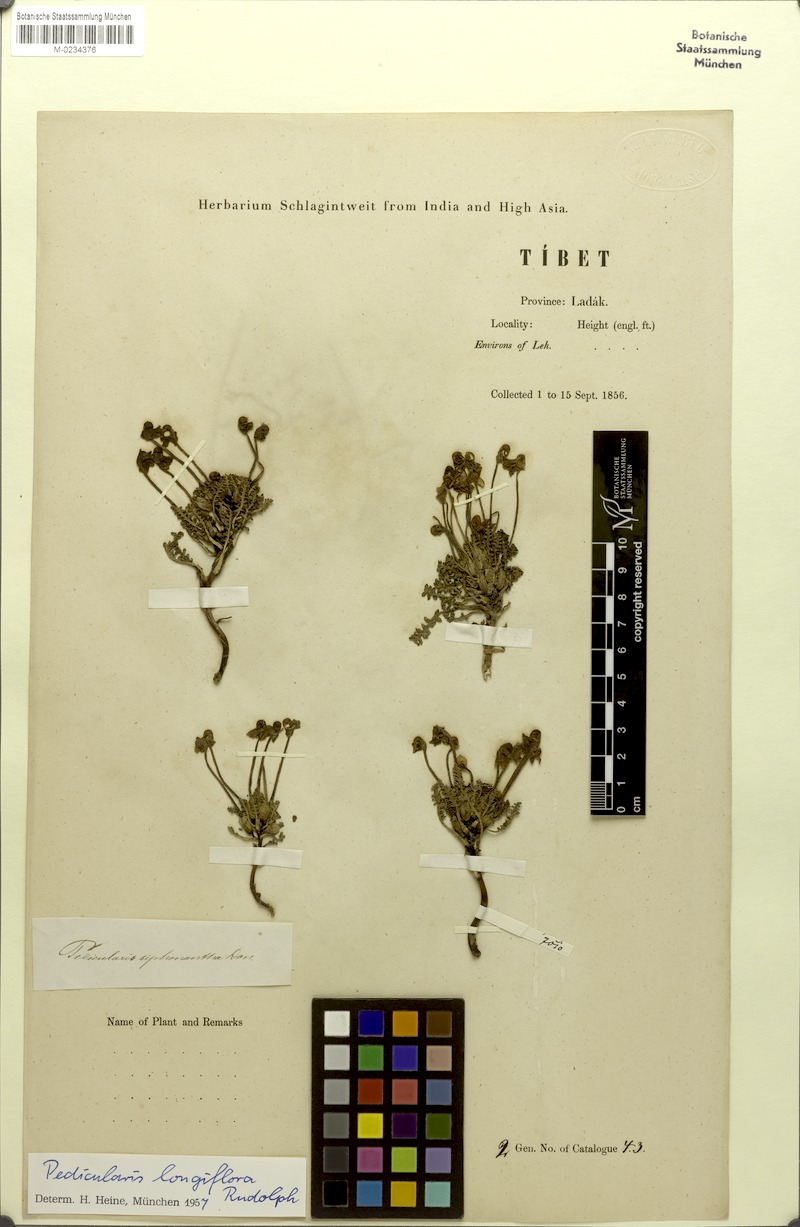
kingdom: Plantae
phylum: Tracheophyta
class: Magnoliopsida
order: Lamiales
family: Orobanchaceae
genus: Pedicularis
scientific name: Pedicularis longiflora
